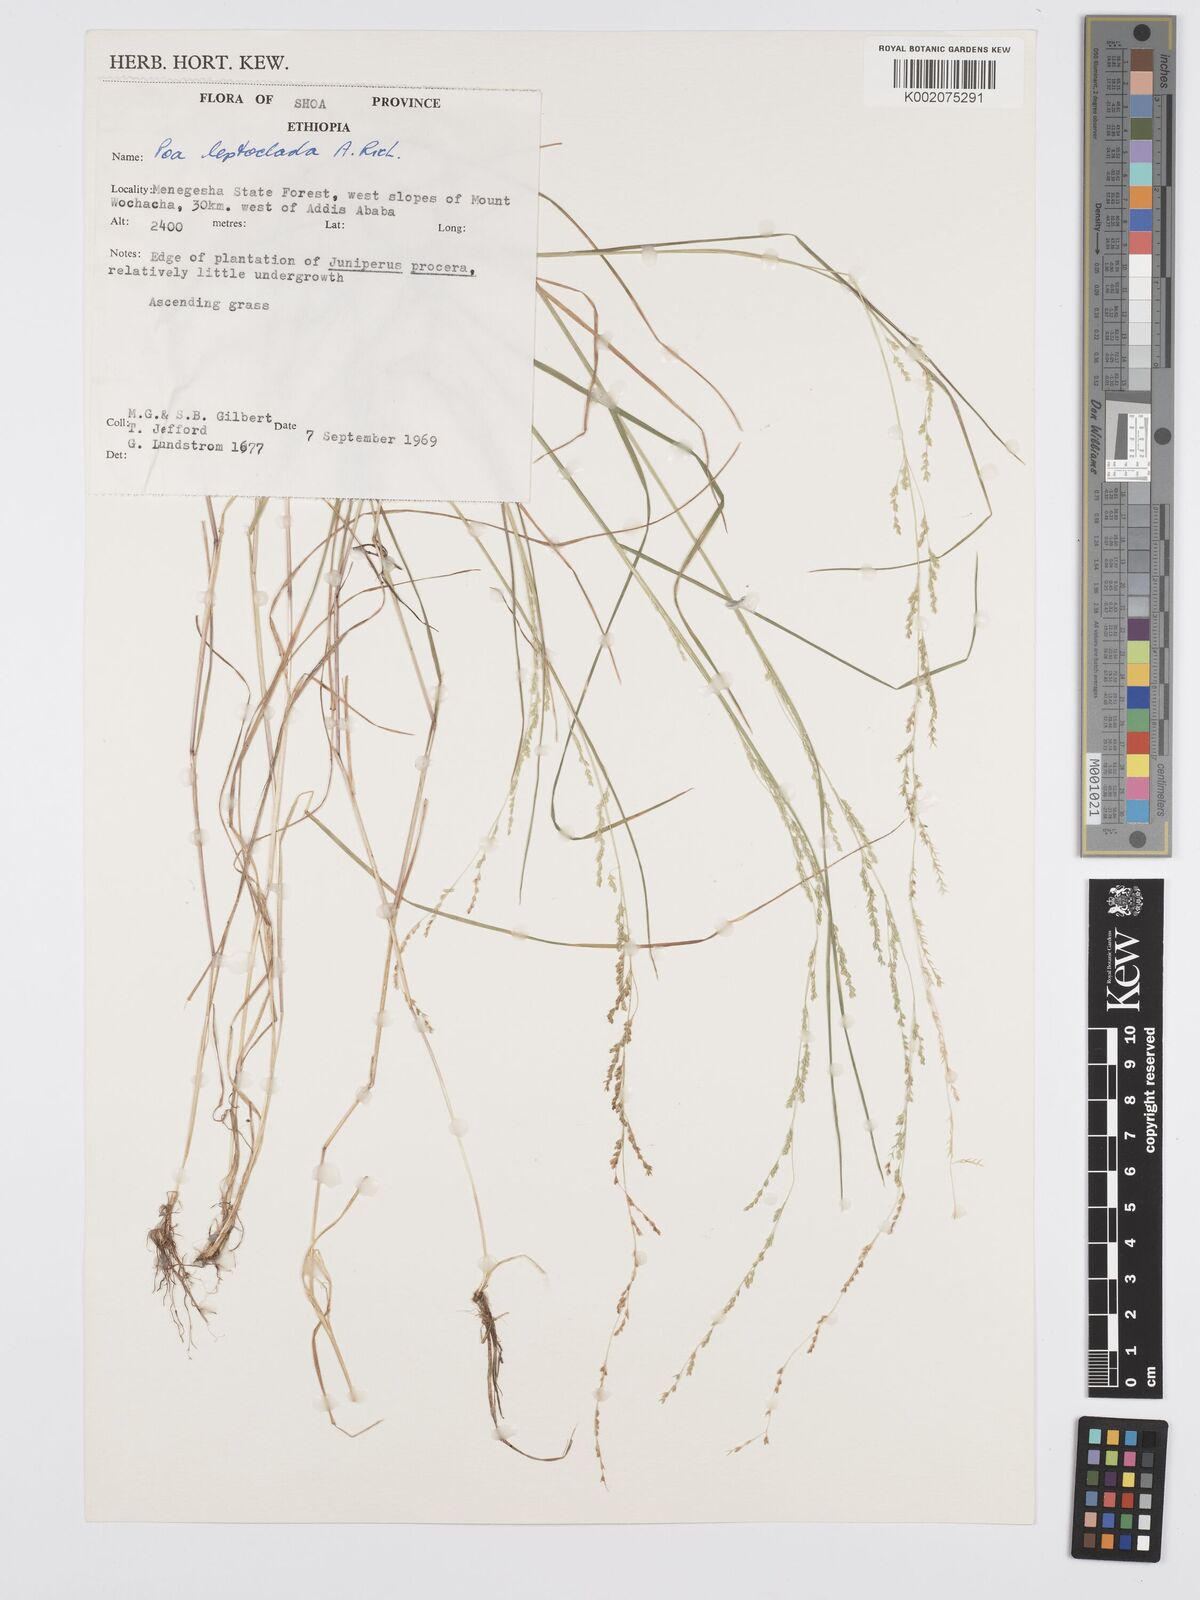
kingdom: Plantae
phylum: Tracheophyta
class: Liliopsida
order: Poales
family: Poaceae
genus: Poa
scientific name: Poa leptoclada
